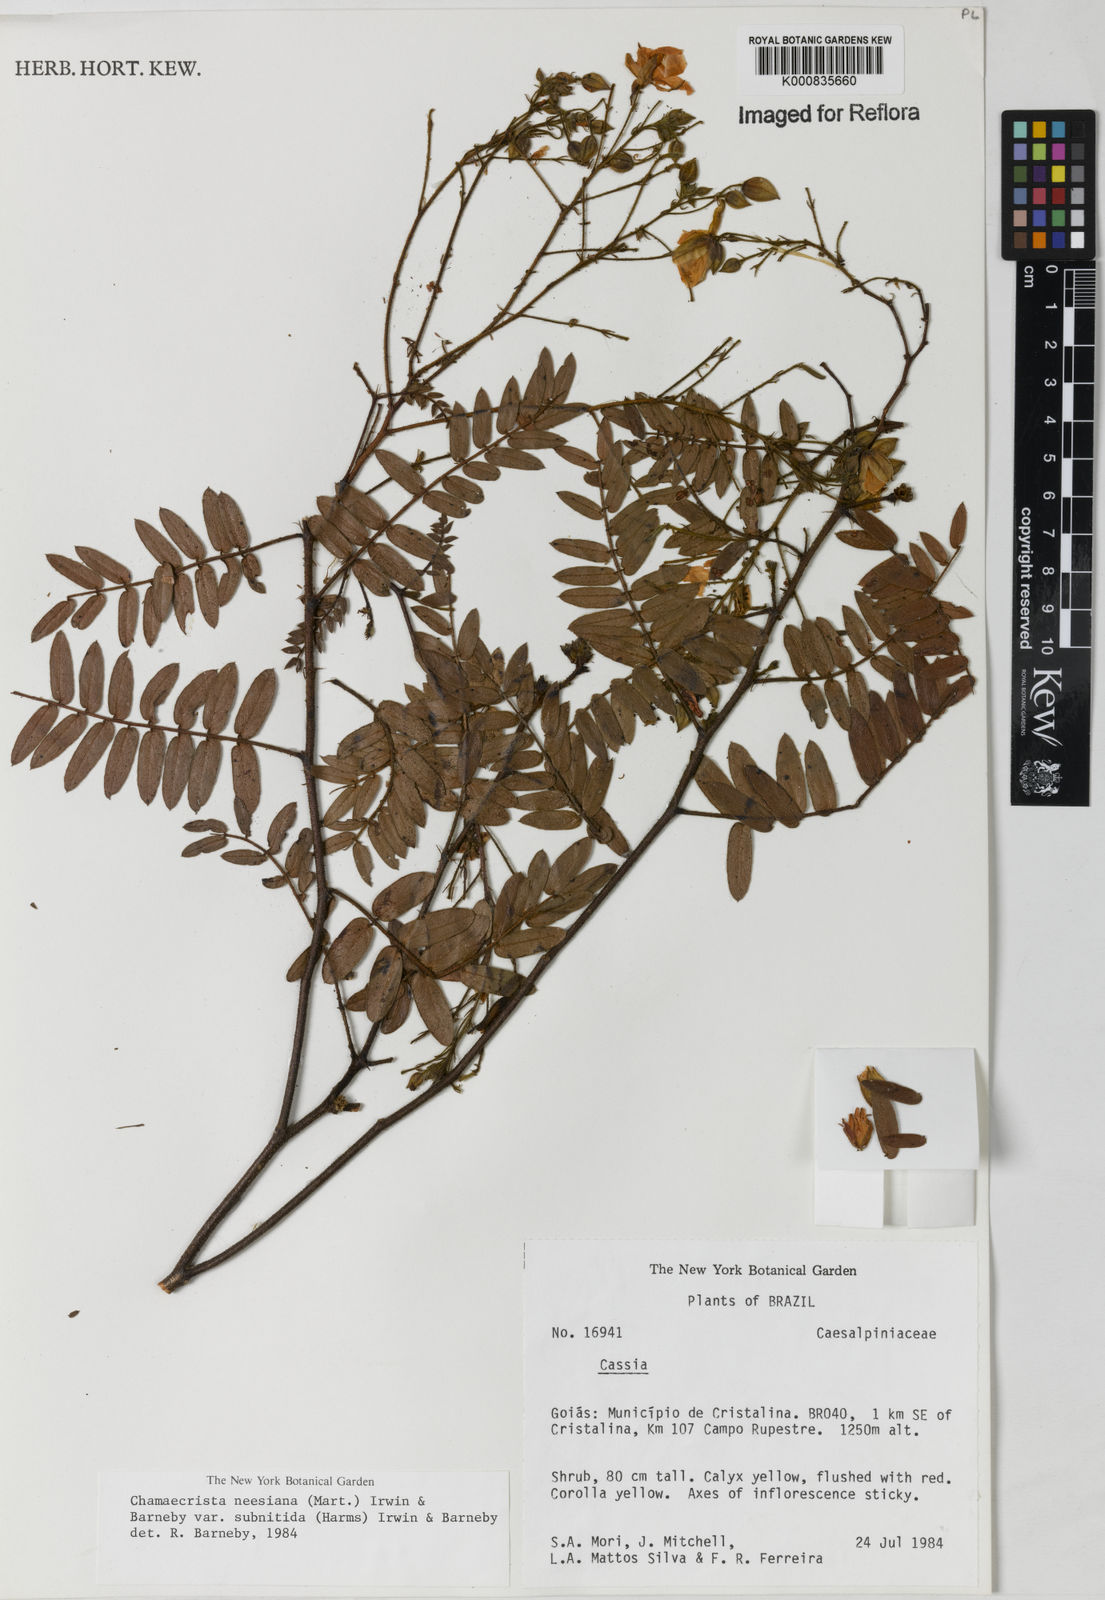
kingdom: Plantae
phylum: Tracheophyta
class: Magnoliopsida
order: Fabales
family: Fabaceae
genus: Chamaecrista
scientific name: Chamaecrista neesiana
